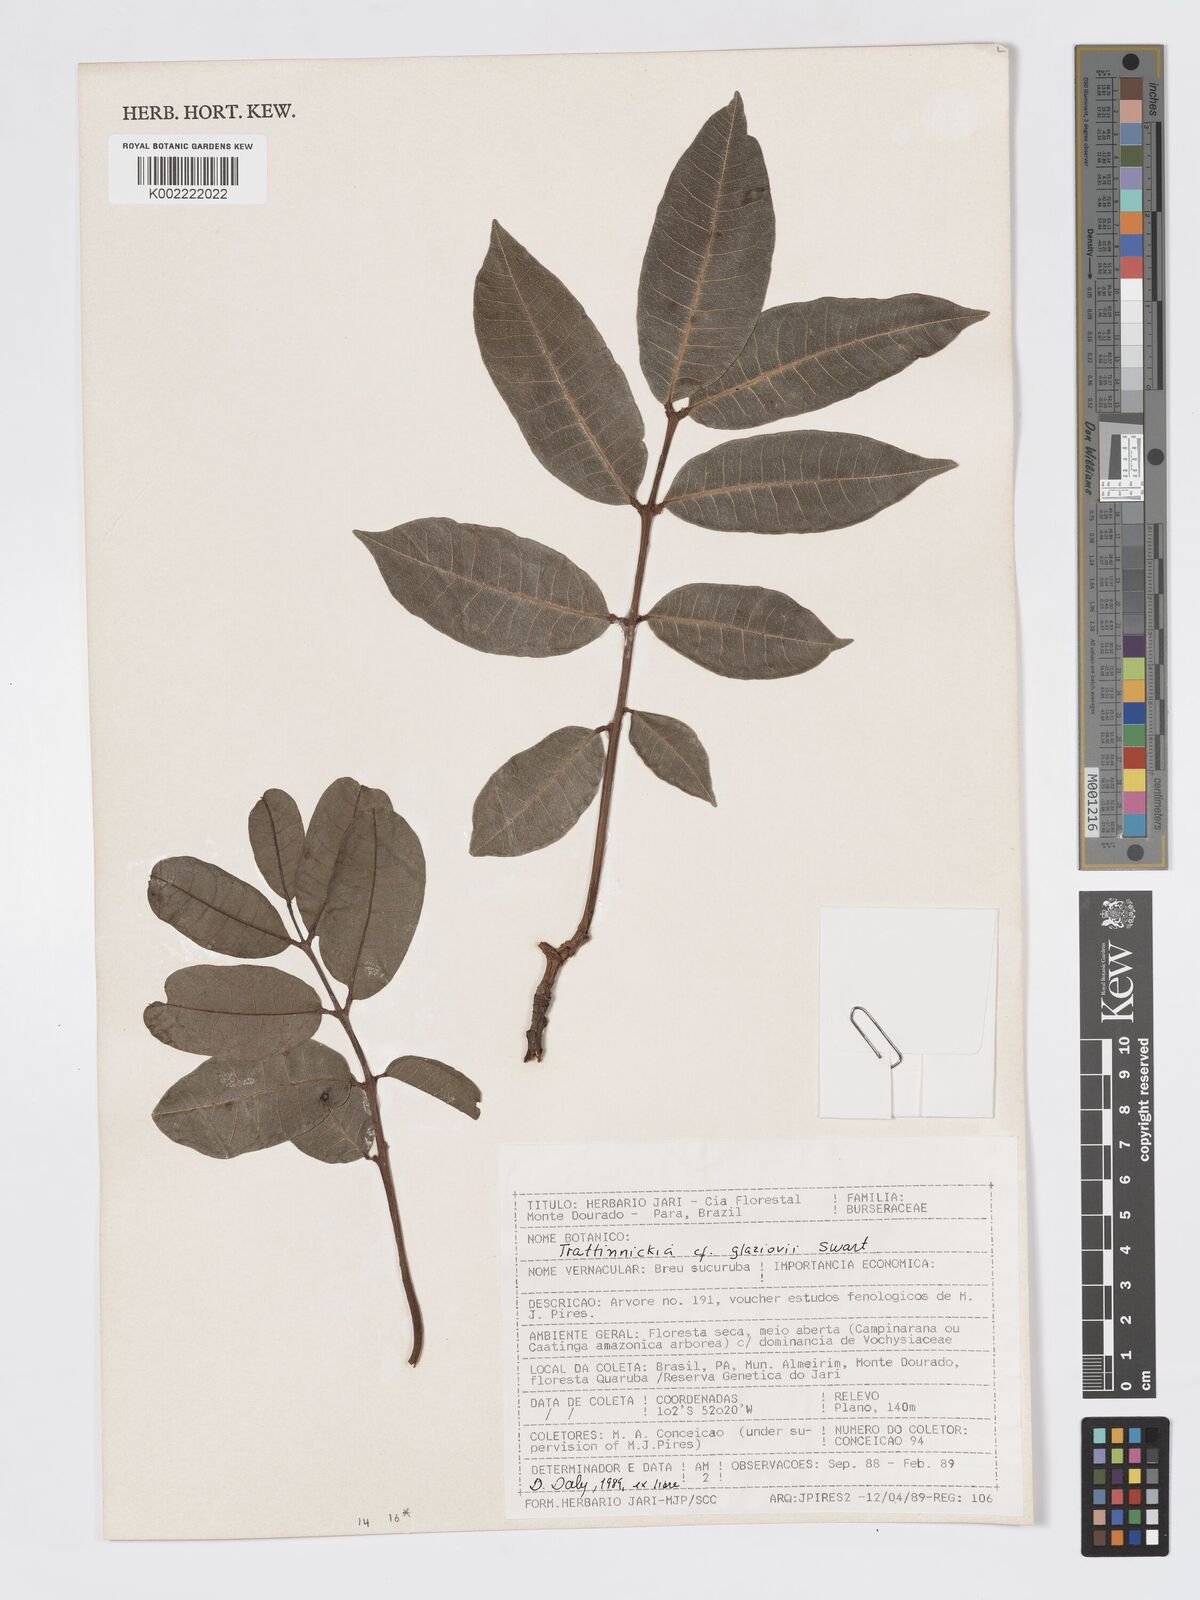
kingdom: Plantae
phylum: Tracheophyta
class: Magnoliopsida
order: Sapindales
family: Burseraceae
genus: Trattinnickia
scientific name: Trattinnickia glaziovii
